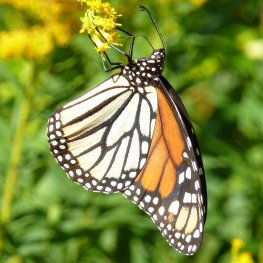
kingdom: Animalia
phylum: Arthropoda
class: Insecta
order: Lepidoptera
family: Nymphalidae
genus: Danaus
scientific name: Danaus plexippus
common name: Monarch
